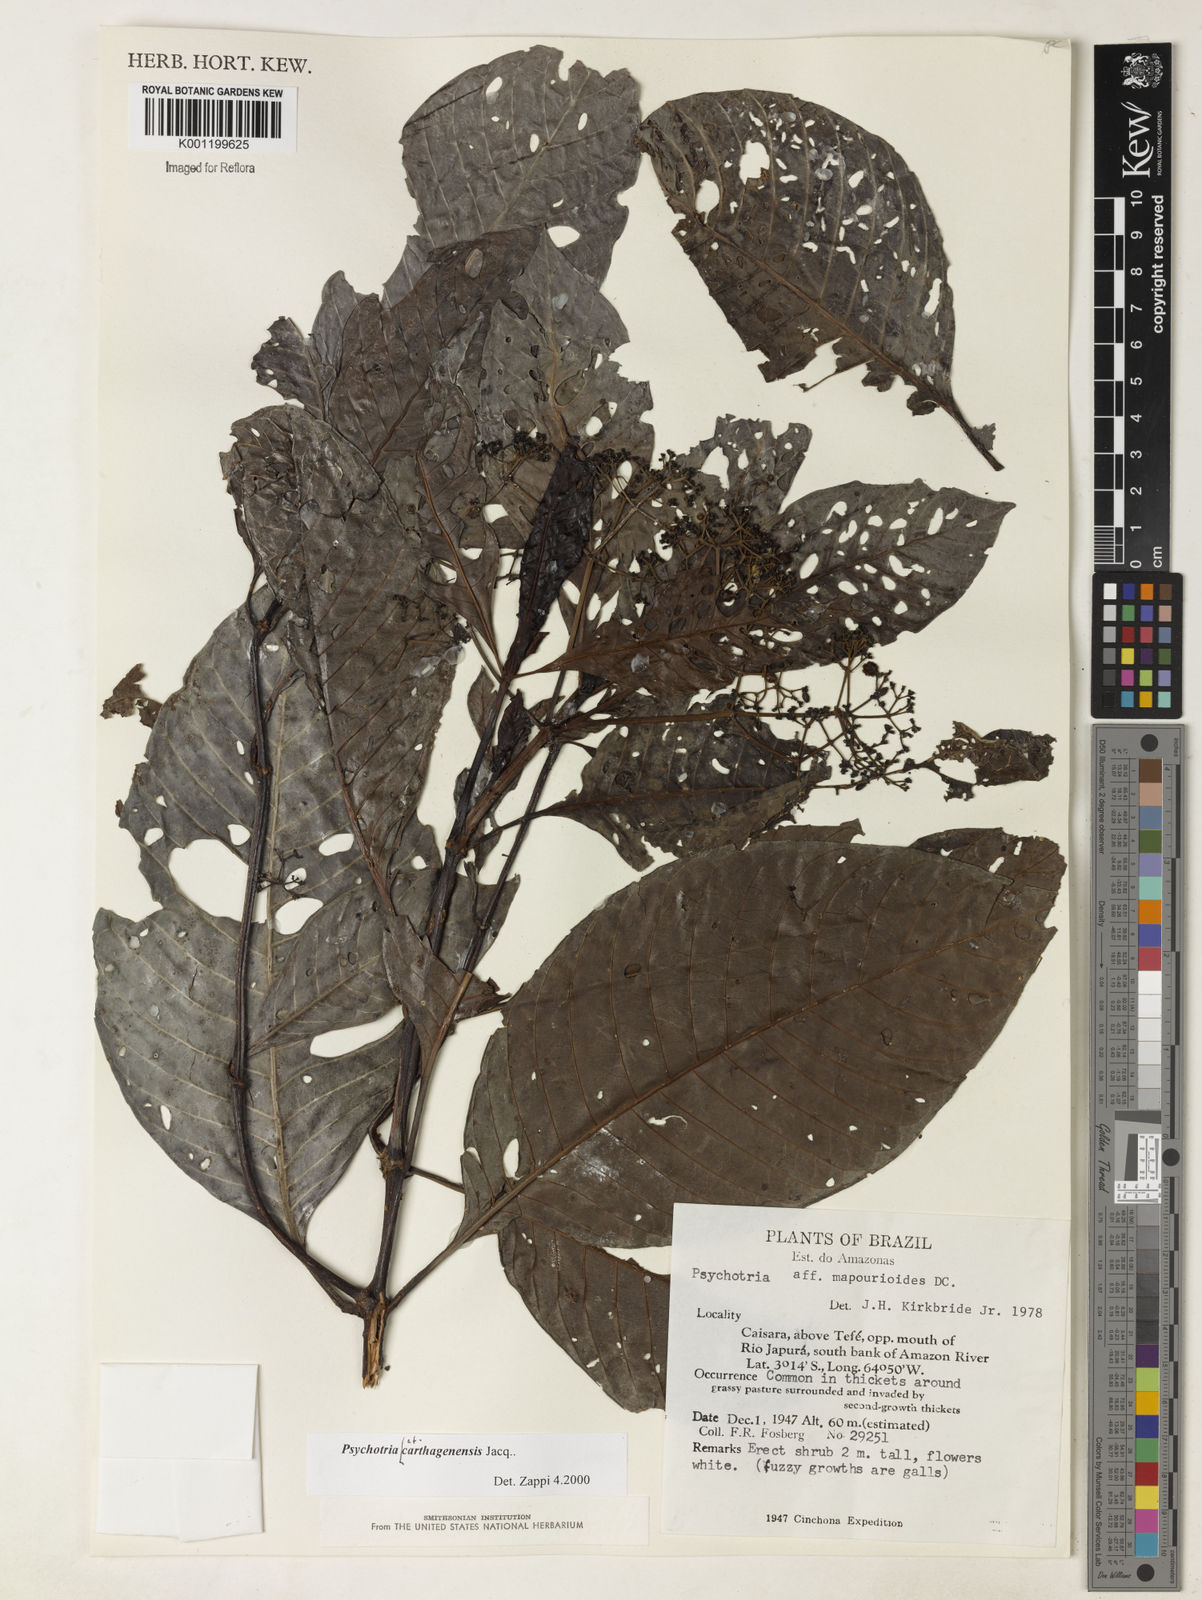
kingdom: Plantae
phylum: Tracheophyta
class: Magnoliopsida
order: Gentianales
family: Rubiaceae
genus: Psychotria
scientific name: Psychotria carthagenensis
